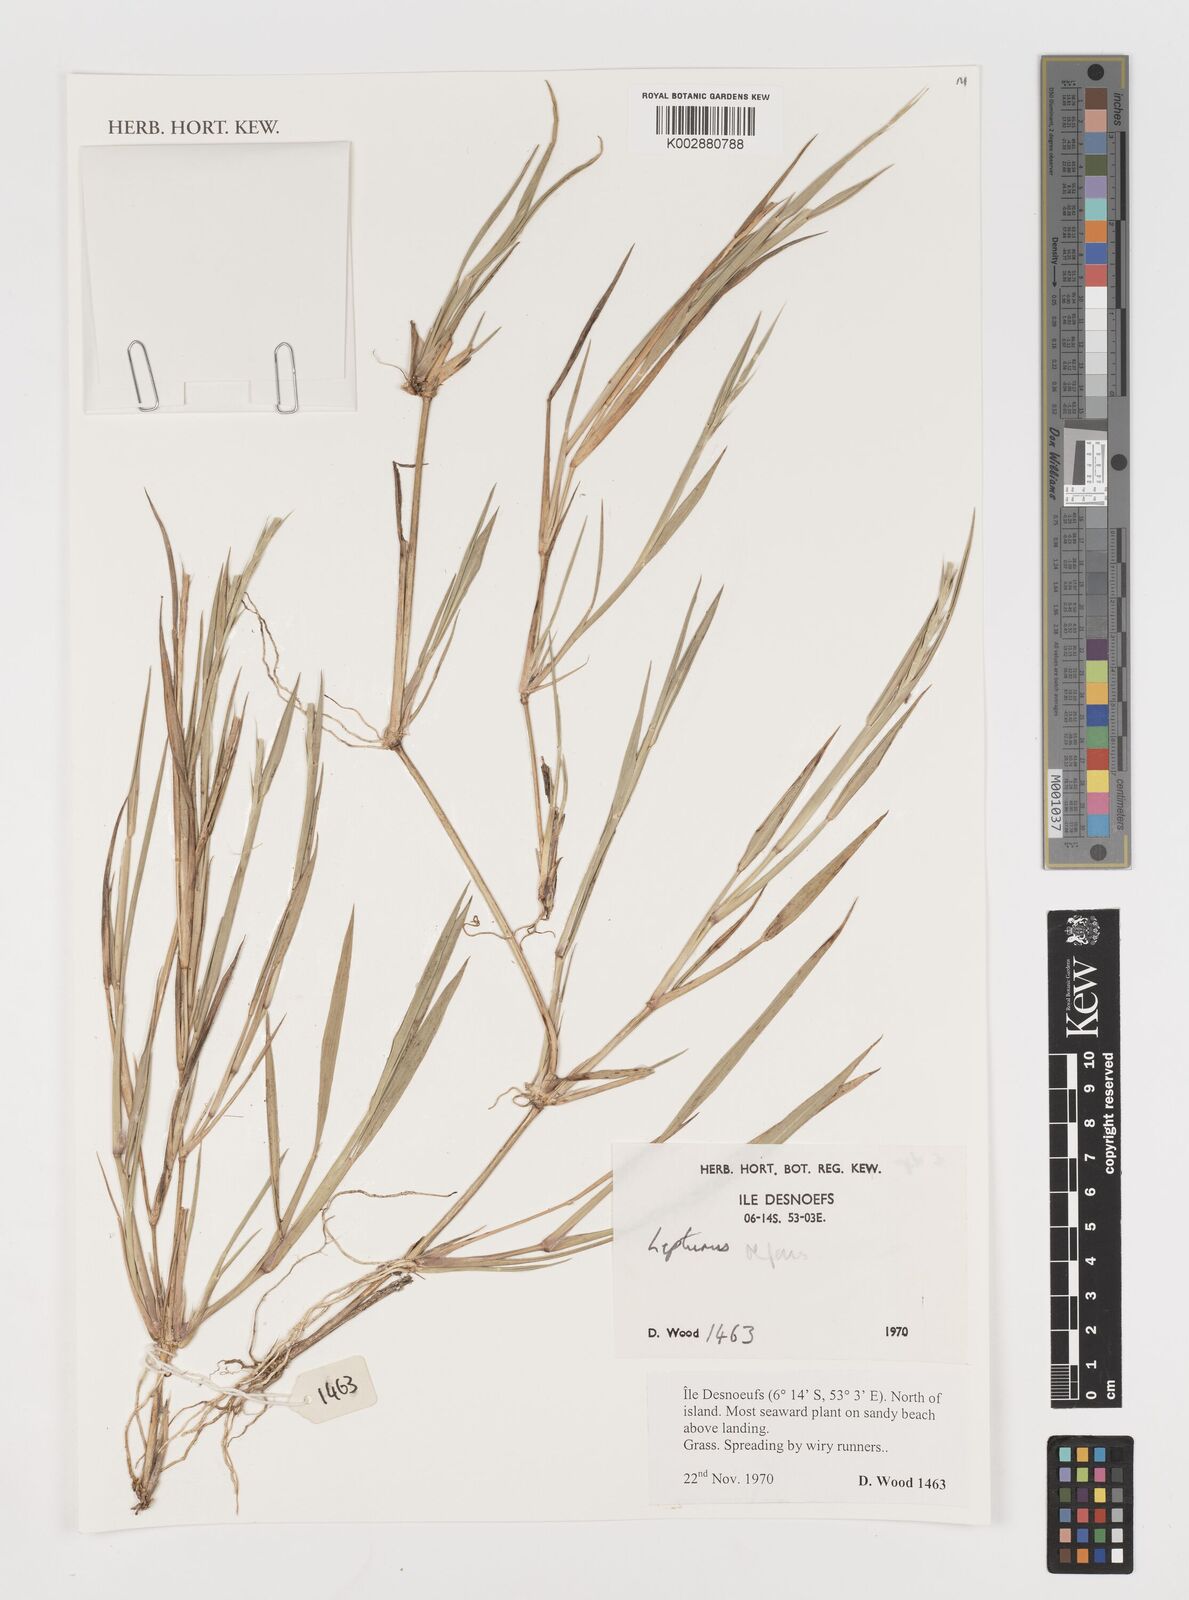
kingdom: Plantae
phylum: Tracheophyta
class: Liliopsida
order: Poales
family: Poaceae
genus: Lepturus
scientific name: Lepturus
